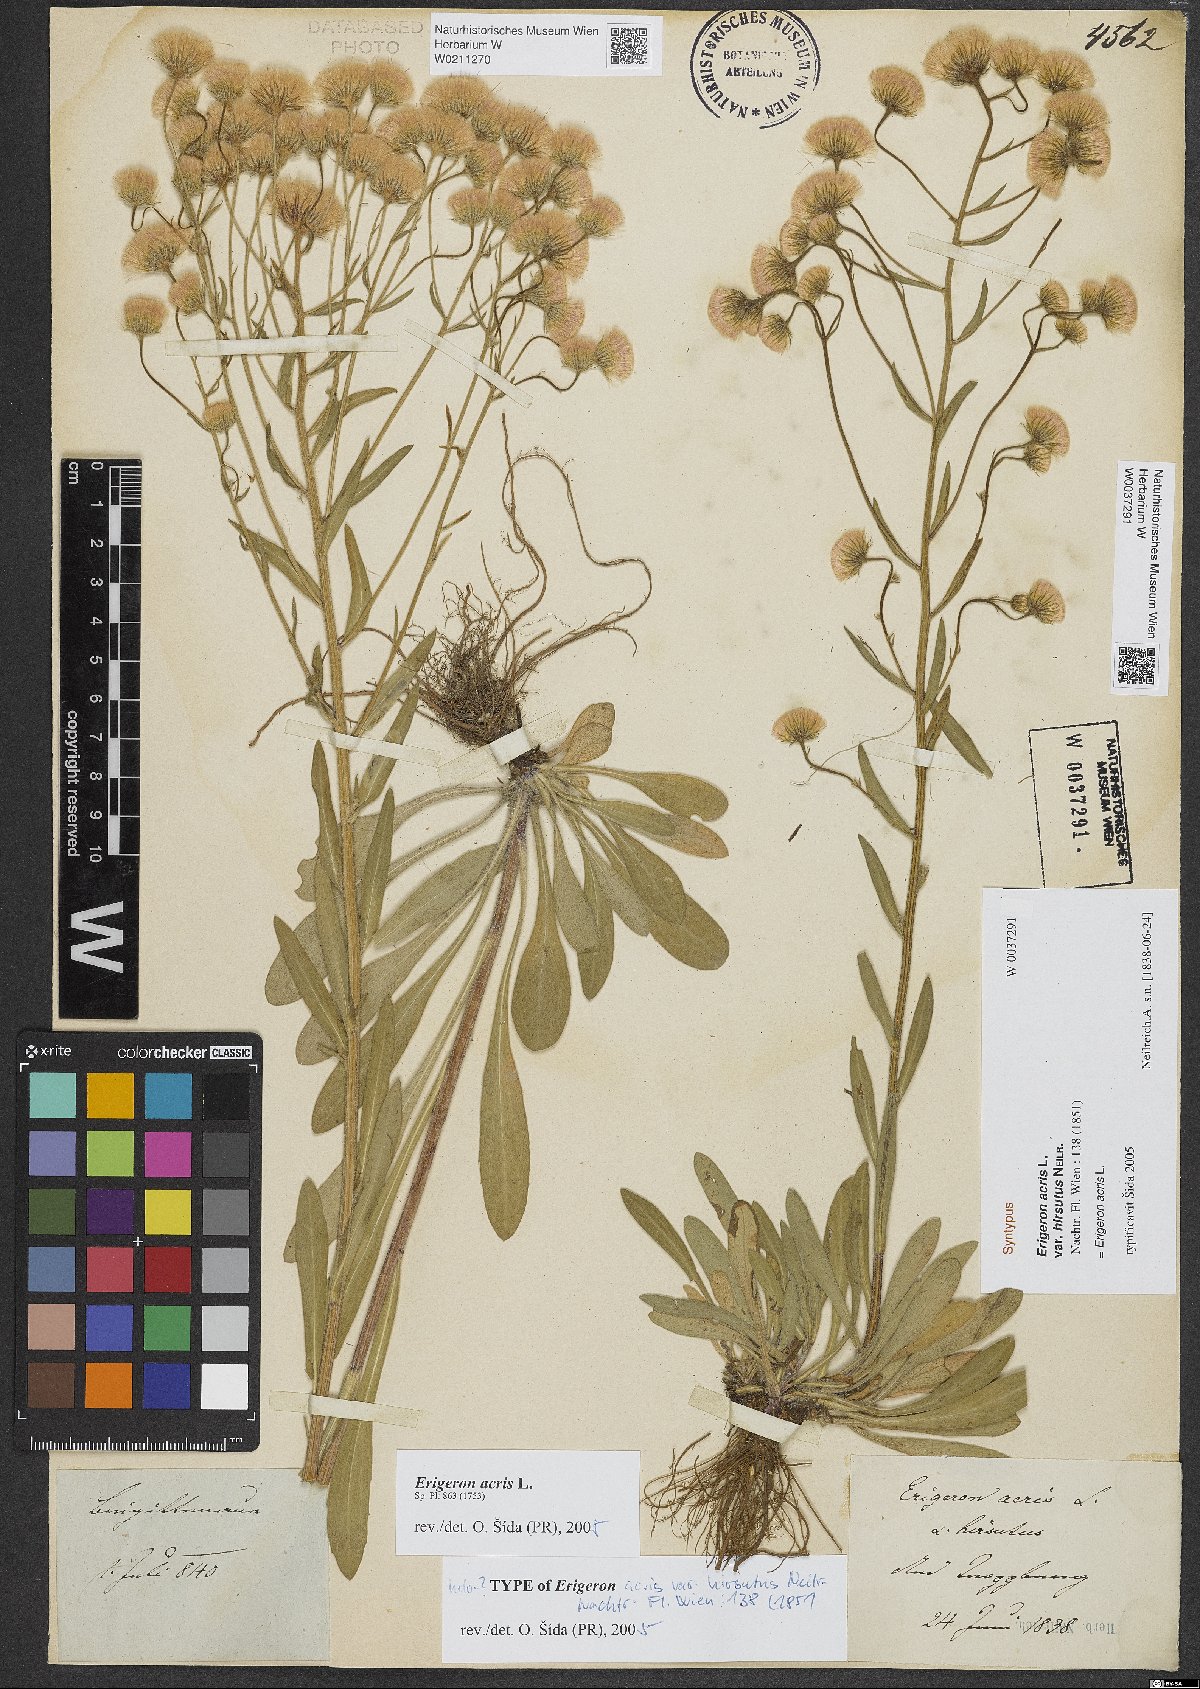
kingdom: Plantae
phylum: Tracheophyta
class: Magnoliopsida
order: Asterales
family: Asteraceae
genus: Erigeron
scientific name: Erigeron acris
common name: Blue fleabane
